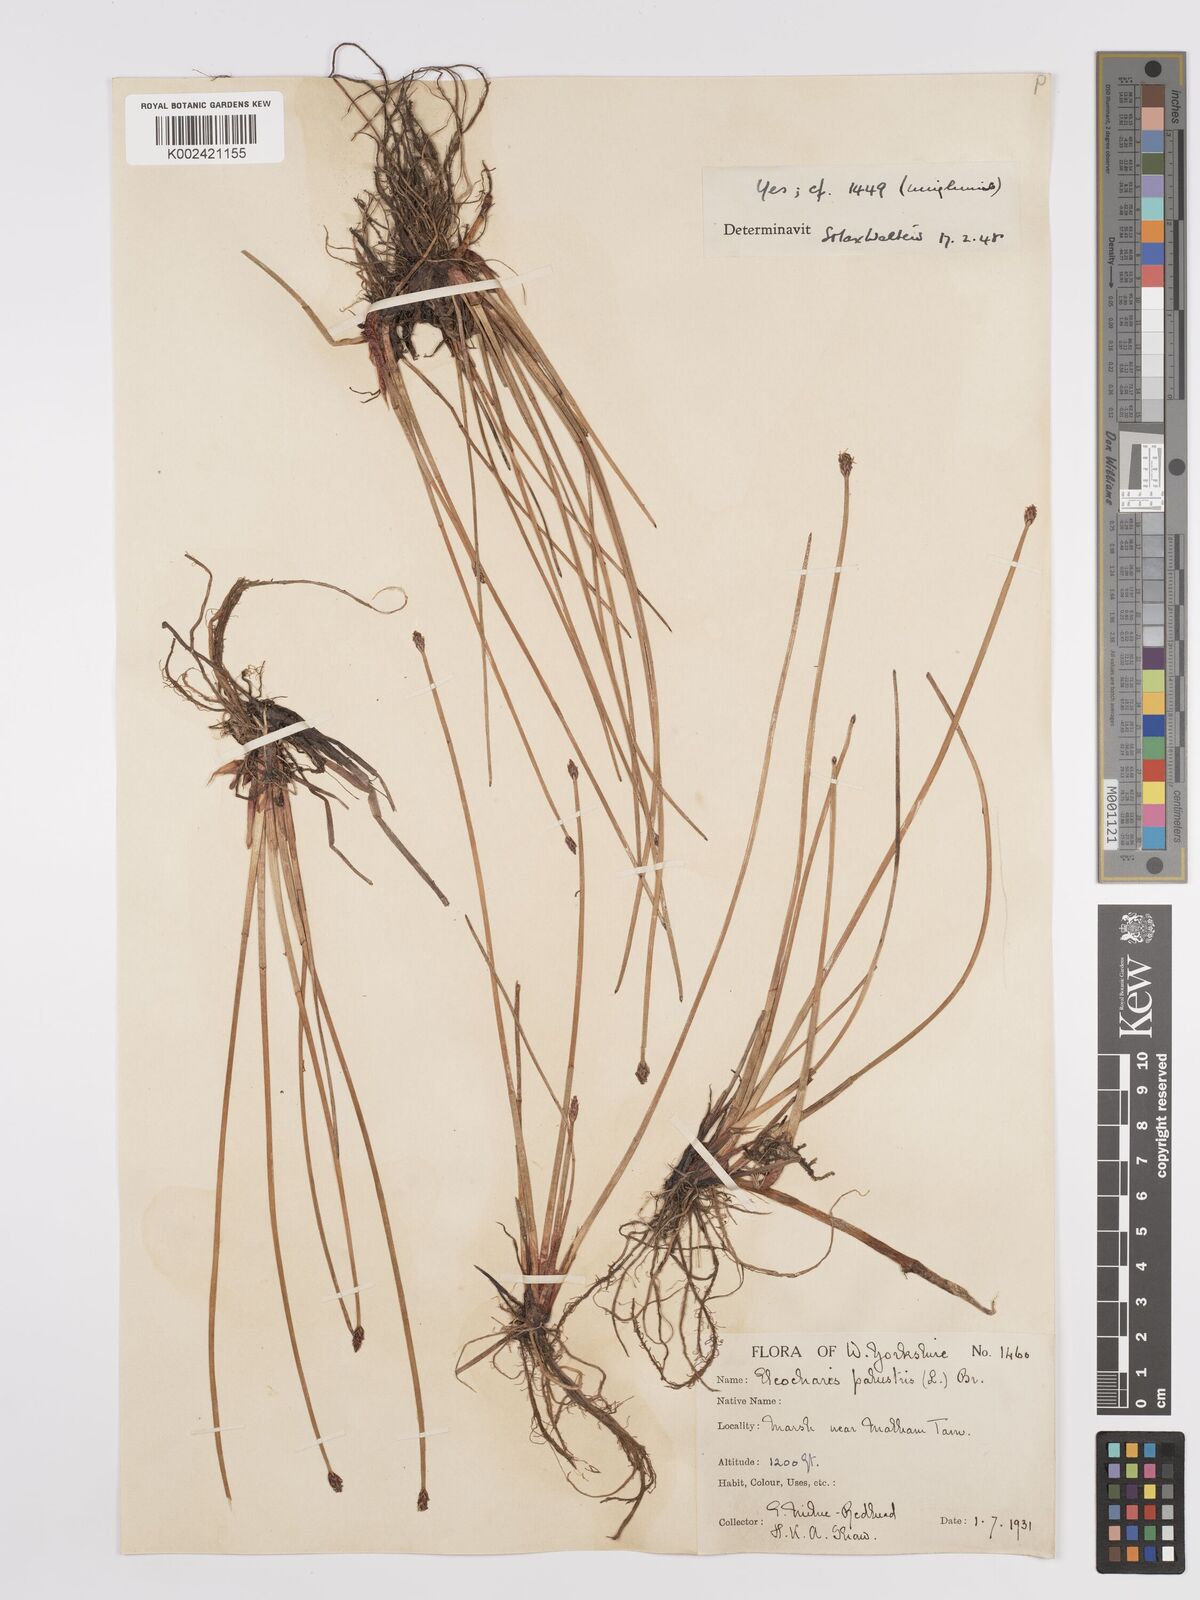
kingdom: Plantae
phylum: Tracheophyta
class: Liliopsida
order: Poales
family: Cyperaceae
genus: Eleocharis
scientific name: Eleocharis palustris
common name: Common spike-rush
